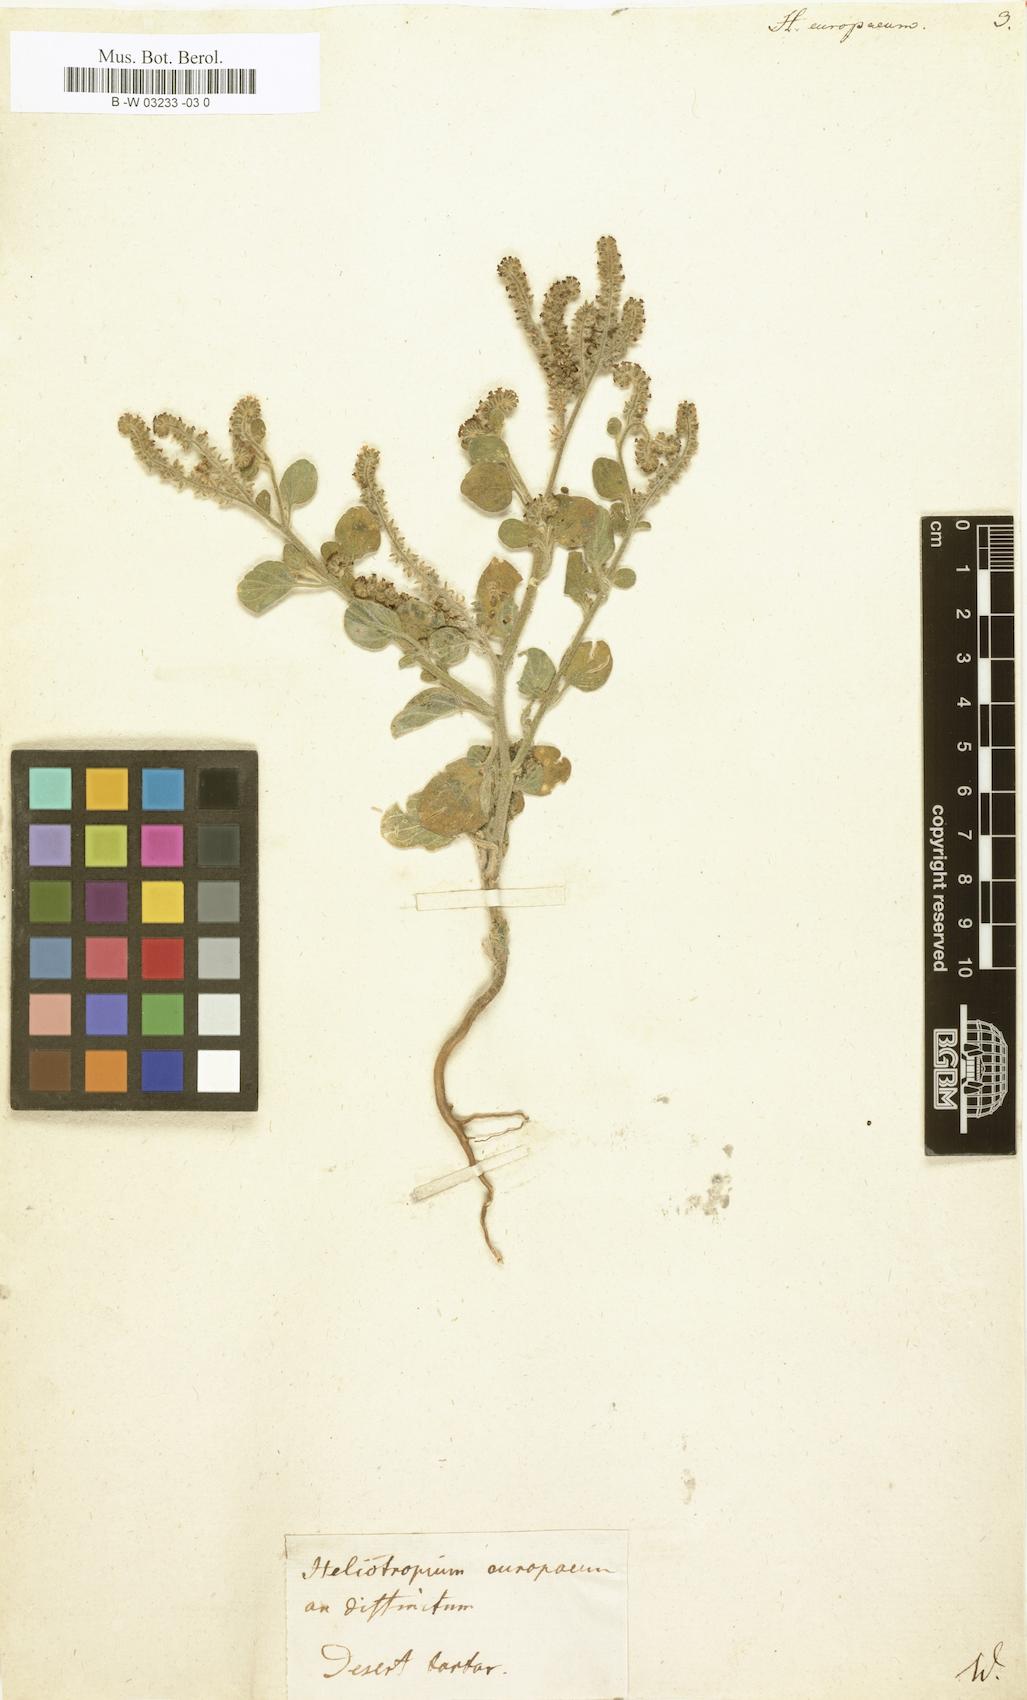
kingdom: Plantae
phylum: Tracheophyta
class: Magnoliopsida
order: Boraginales
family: Heliotropiaceae
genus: Heliotropium
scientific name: Heliotropium europaeum
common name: European heliotrope
